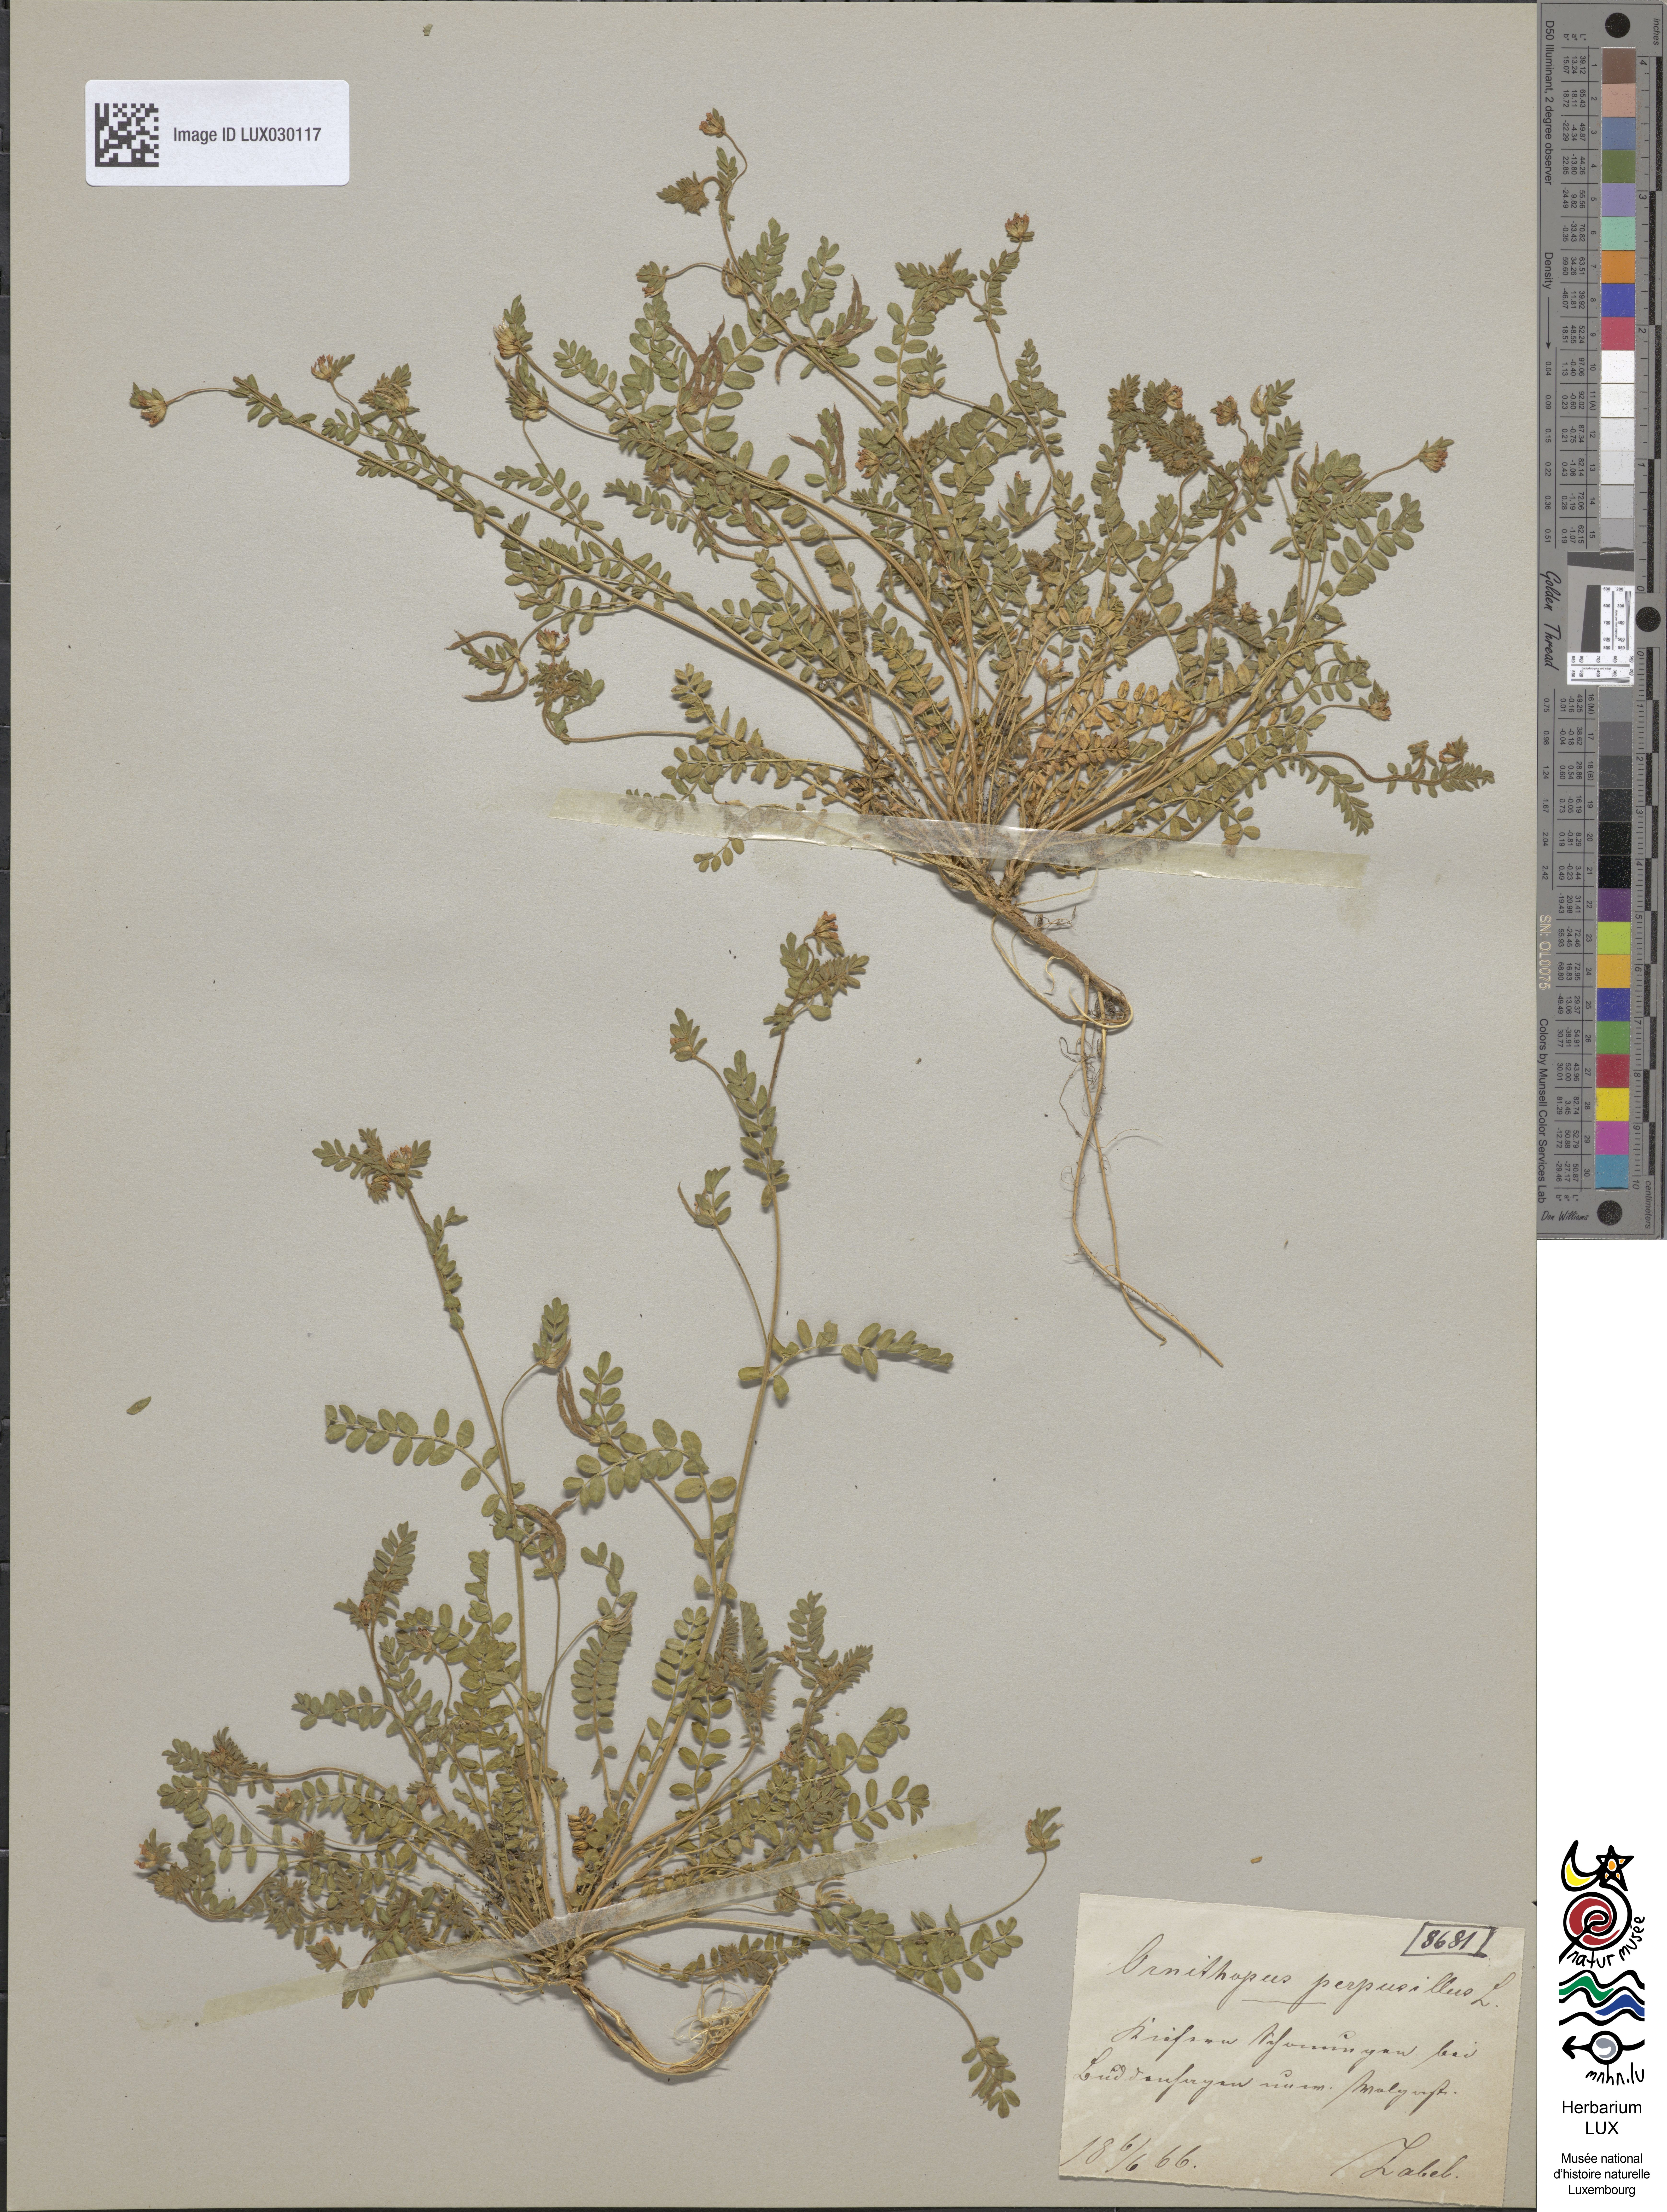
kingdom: Plantae
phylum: Tracheophyta
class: Magnoliopsida
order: Fabales
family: Fabaceae
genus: Ornithopus
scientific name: Ornithopus perpusillus
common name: Bird's-foot
